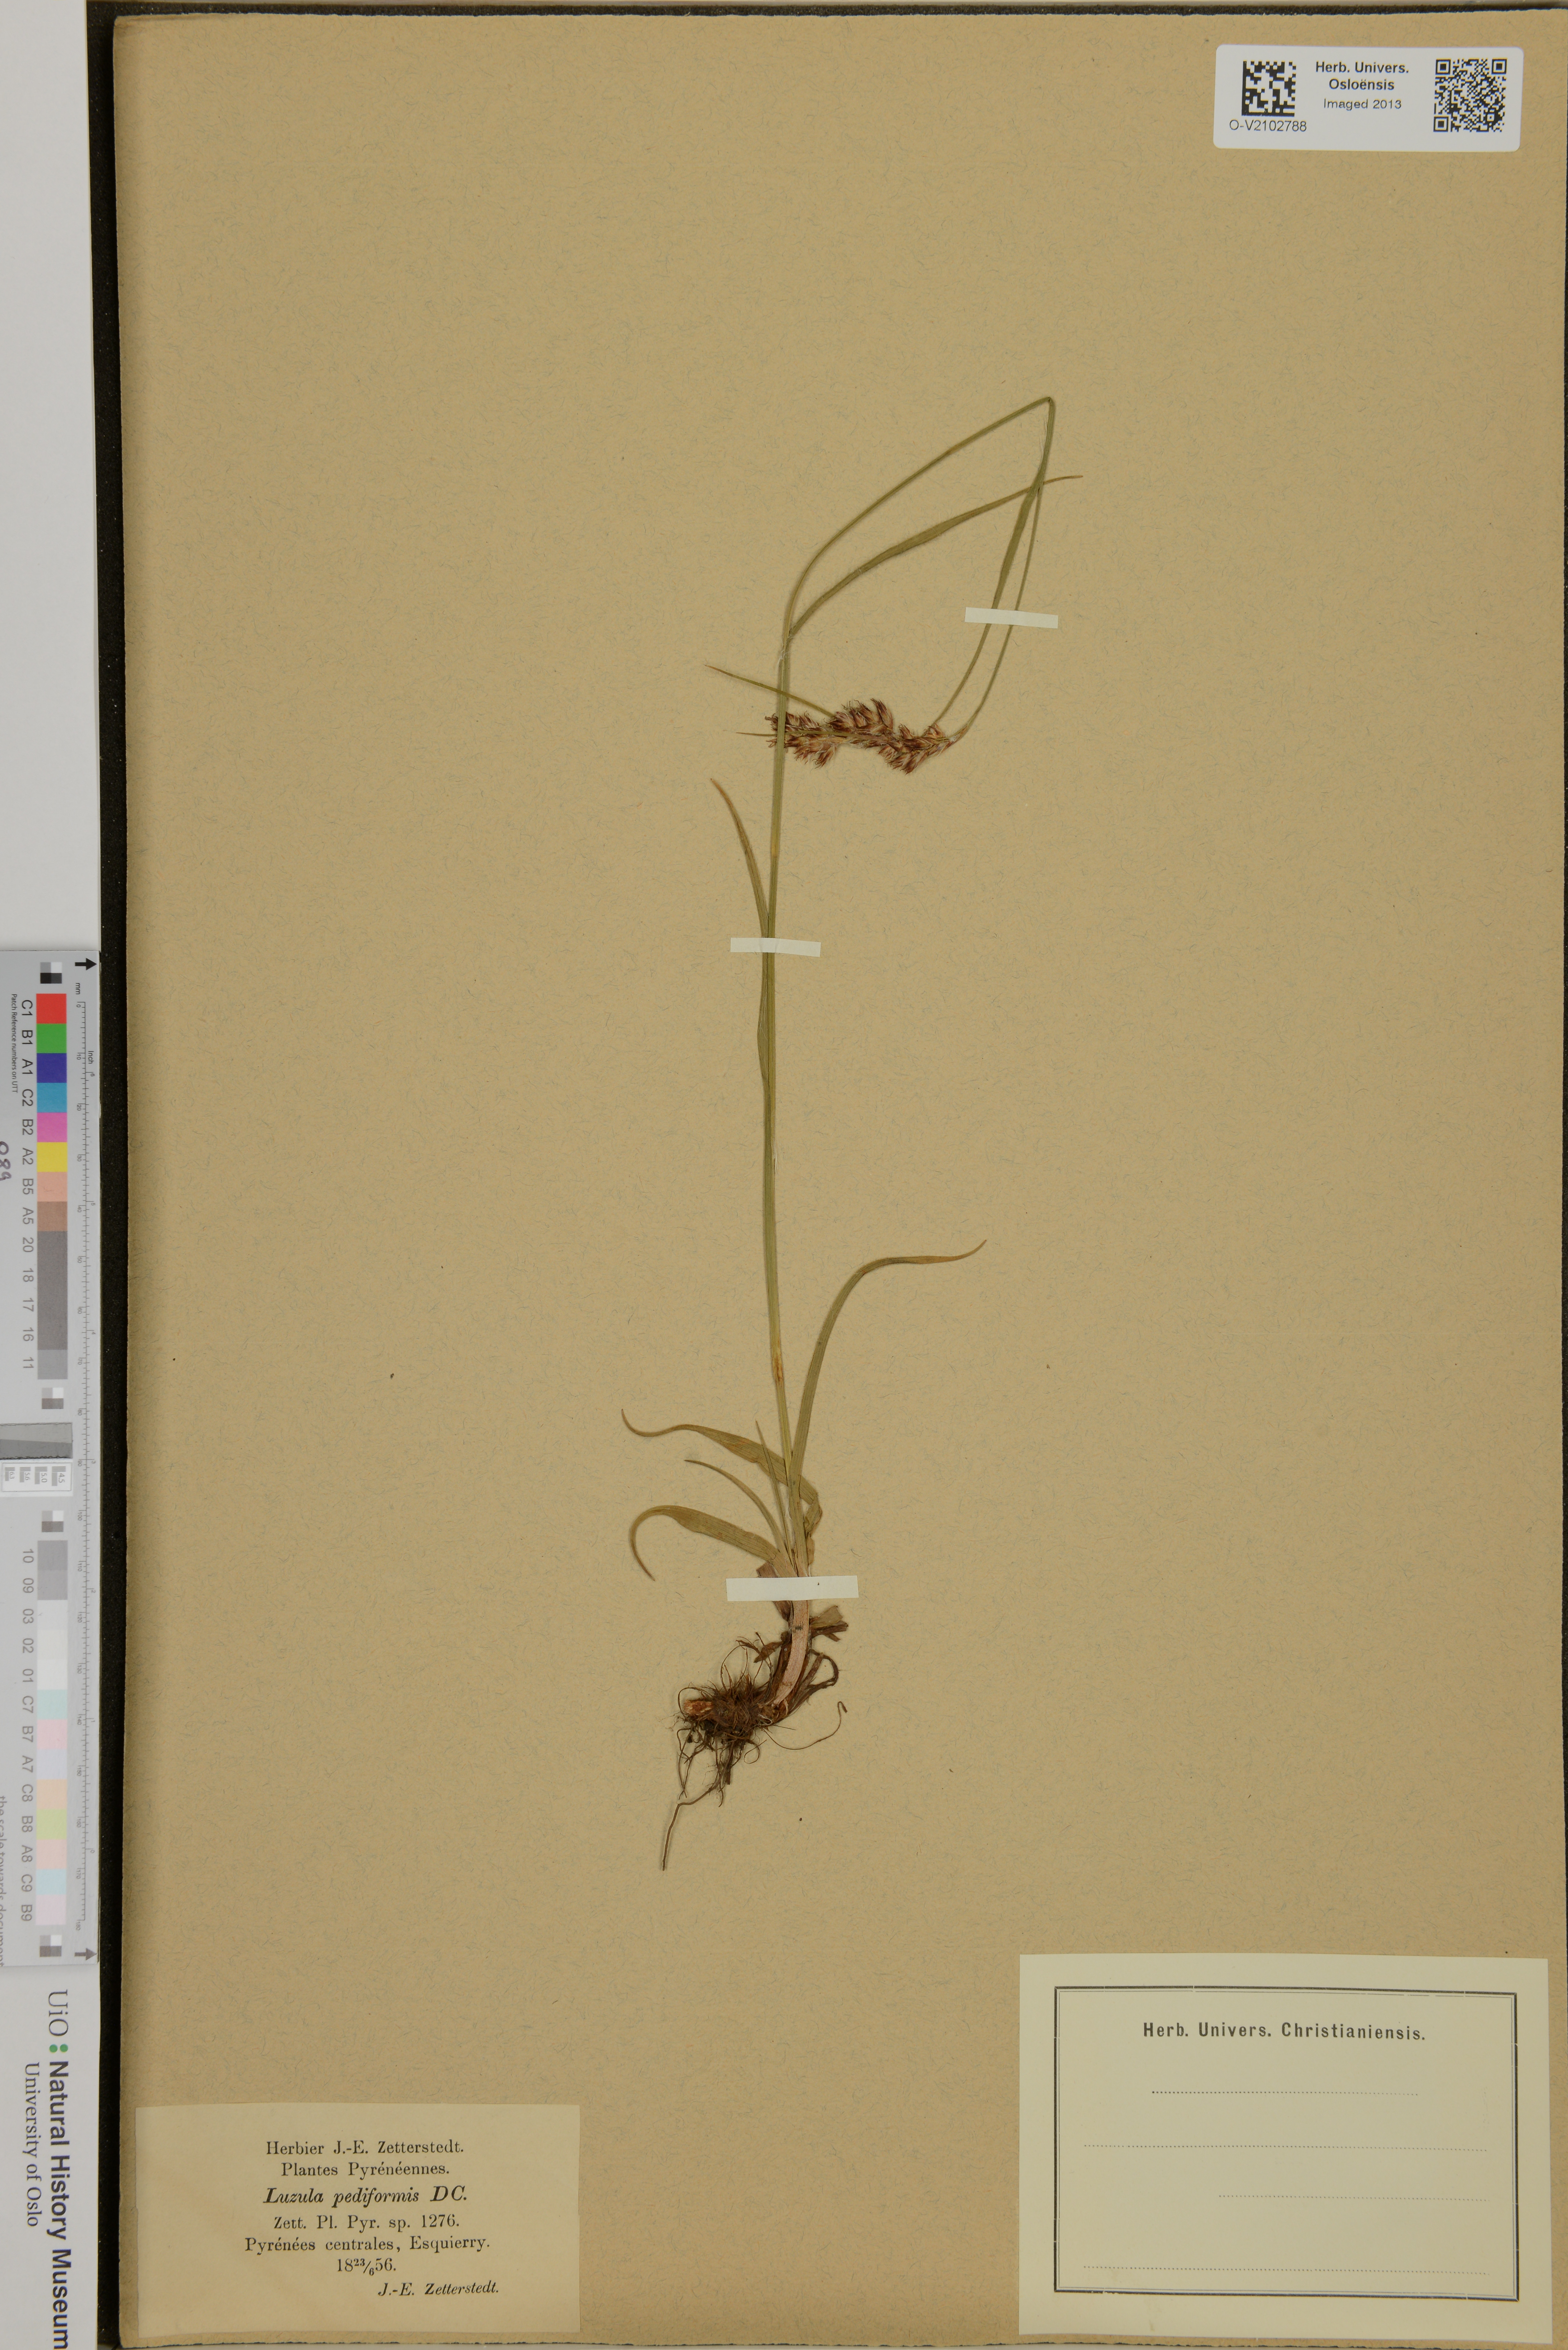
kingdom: Plantae
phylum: Tracheophyta
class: Liliopsida
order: Poales
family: Juncaceae
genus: Luzula
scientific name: Luzula pediformis
